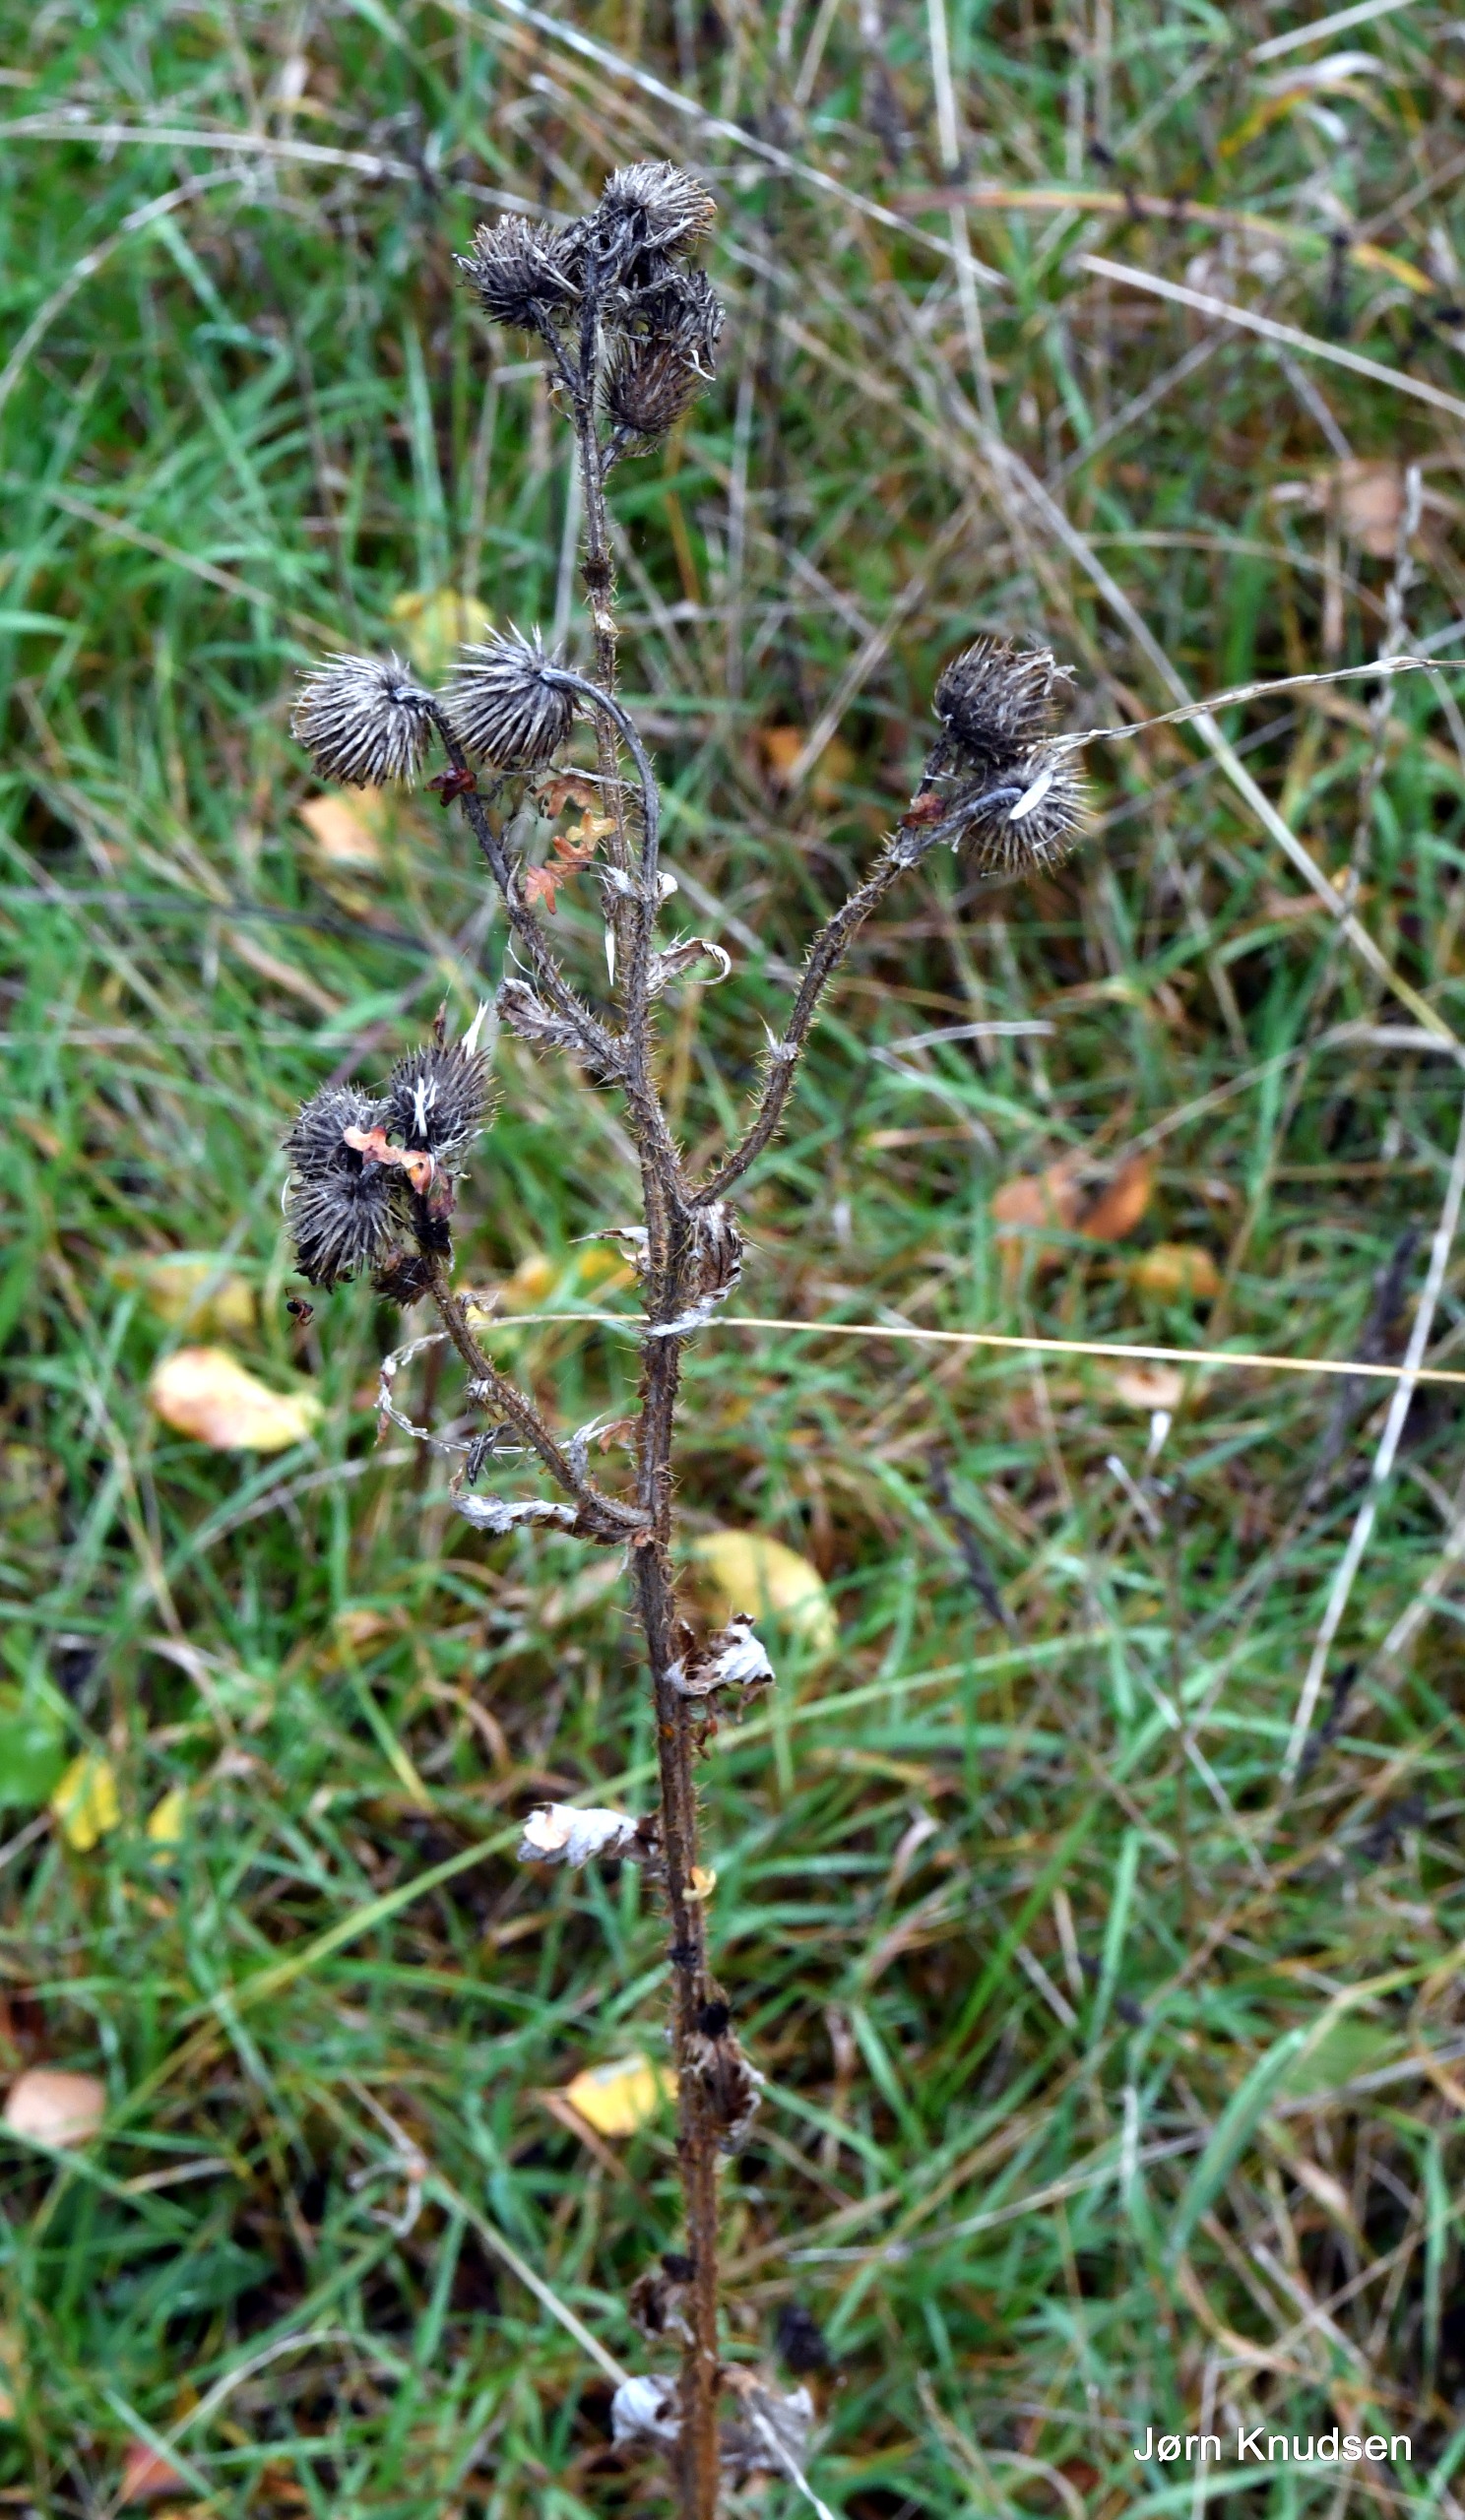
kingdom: Plantae
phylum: Tracheophyta
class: Magnoliopsida
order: Asterales
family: Asteraceae
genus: Carduus
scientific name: Carduus crispus
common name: Kruset tidsel
